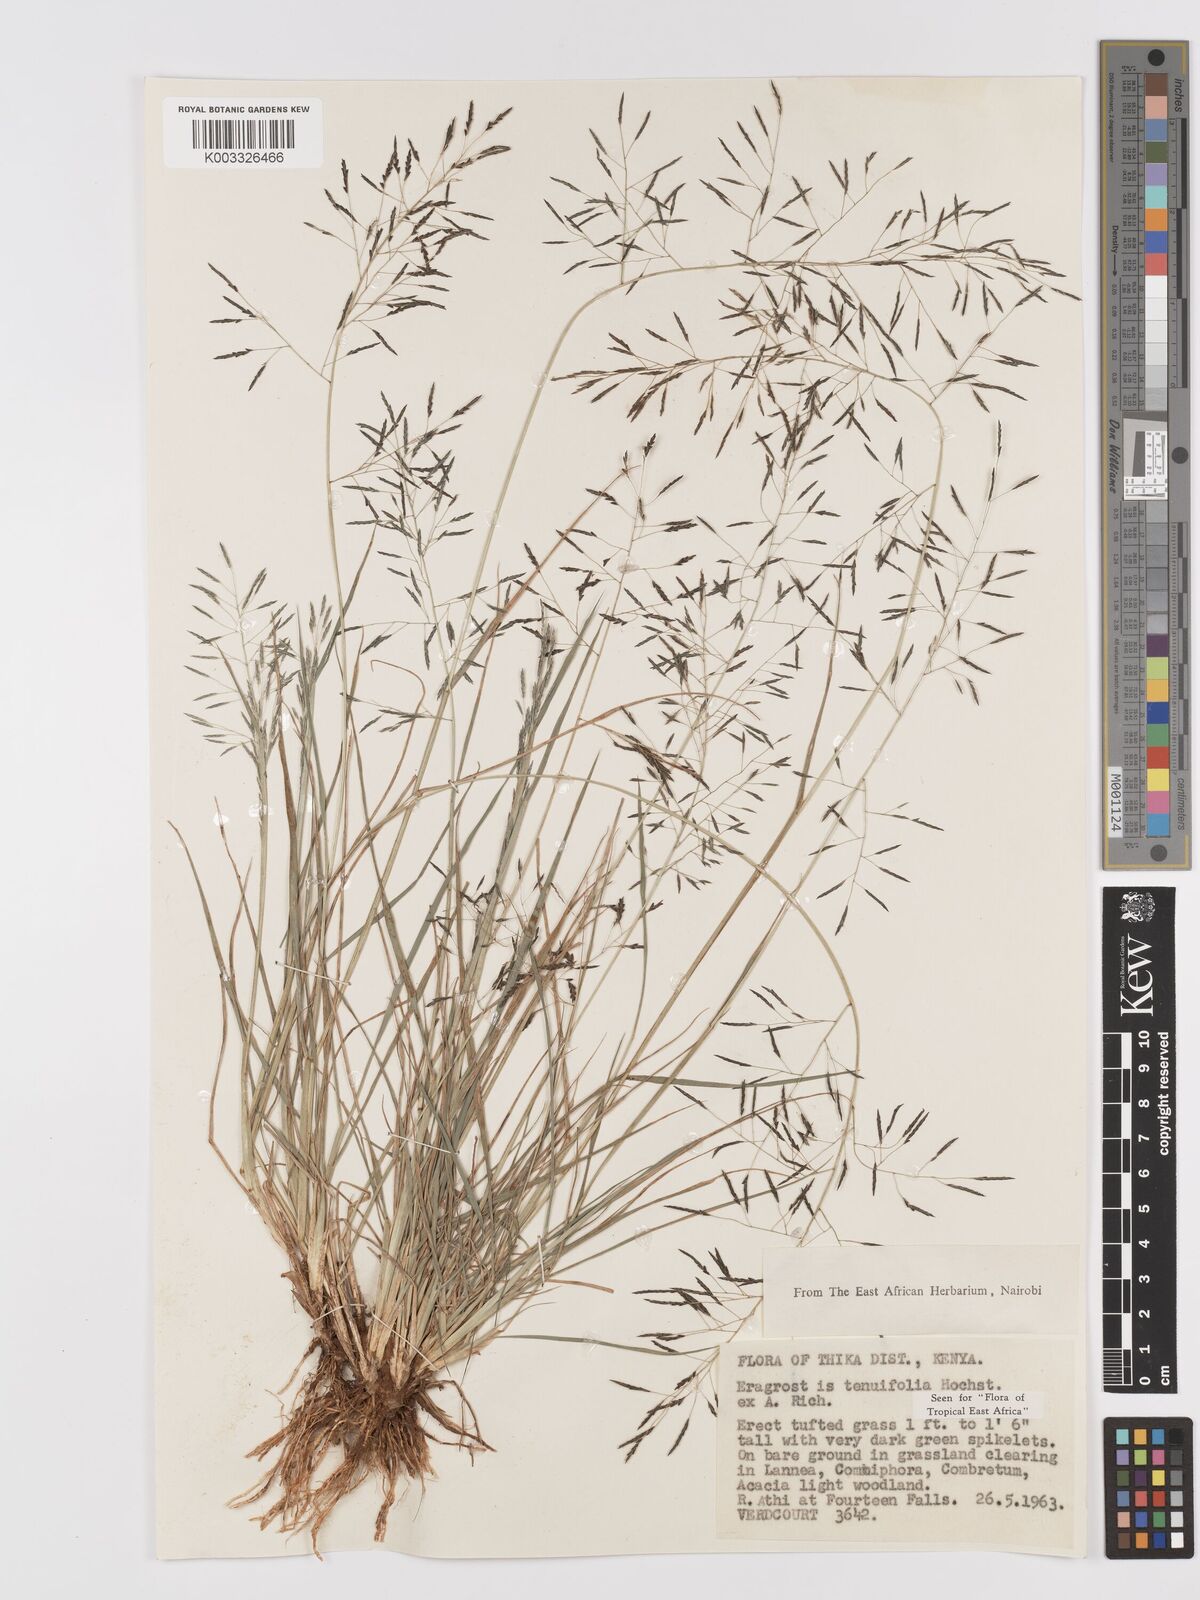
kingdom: Plantae
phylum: Tracheophyta
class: Liliopsida
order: Poales
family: Poaceae
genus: Eragrostis
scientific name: Eragrostis tenuifolia
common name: Elastic grass
